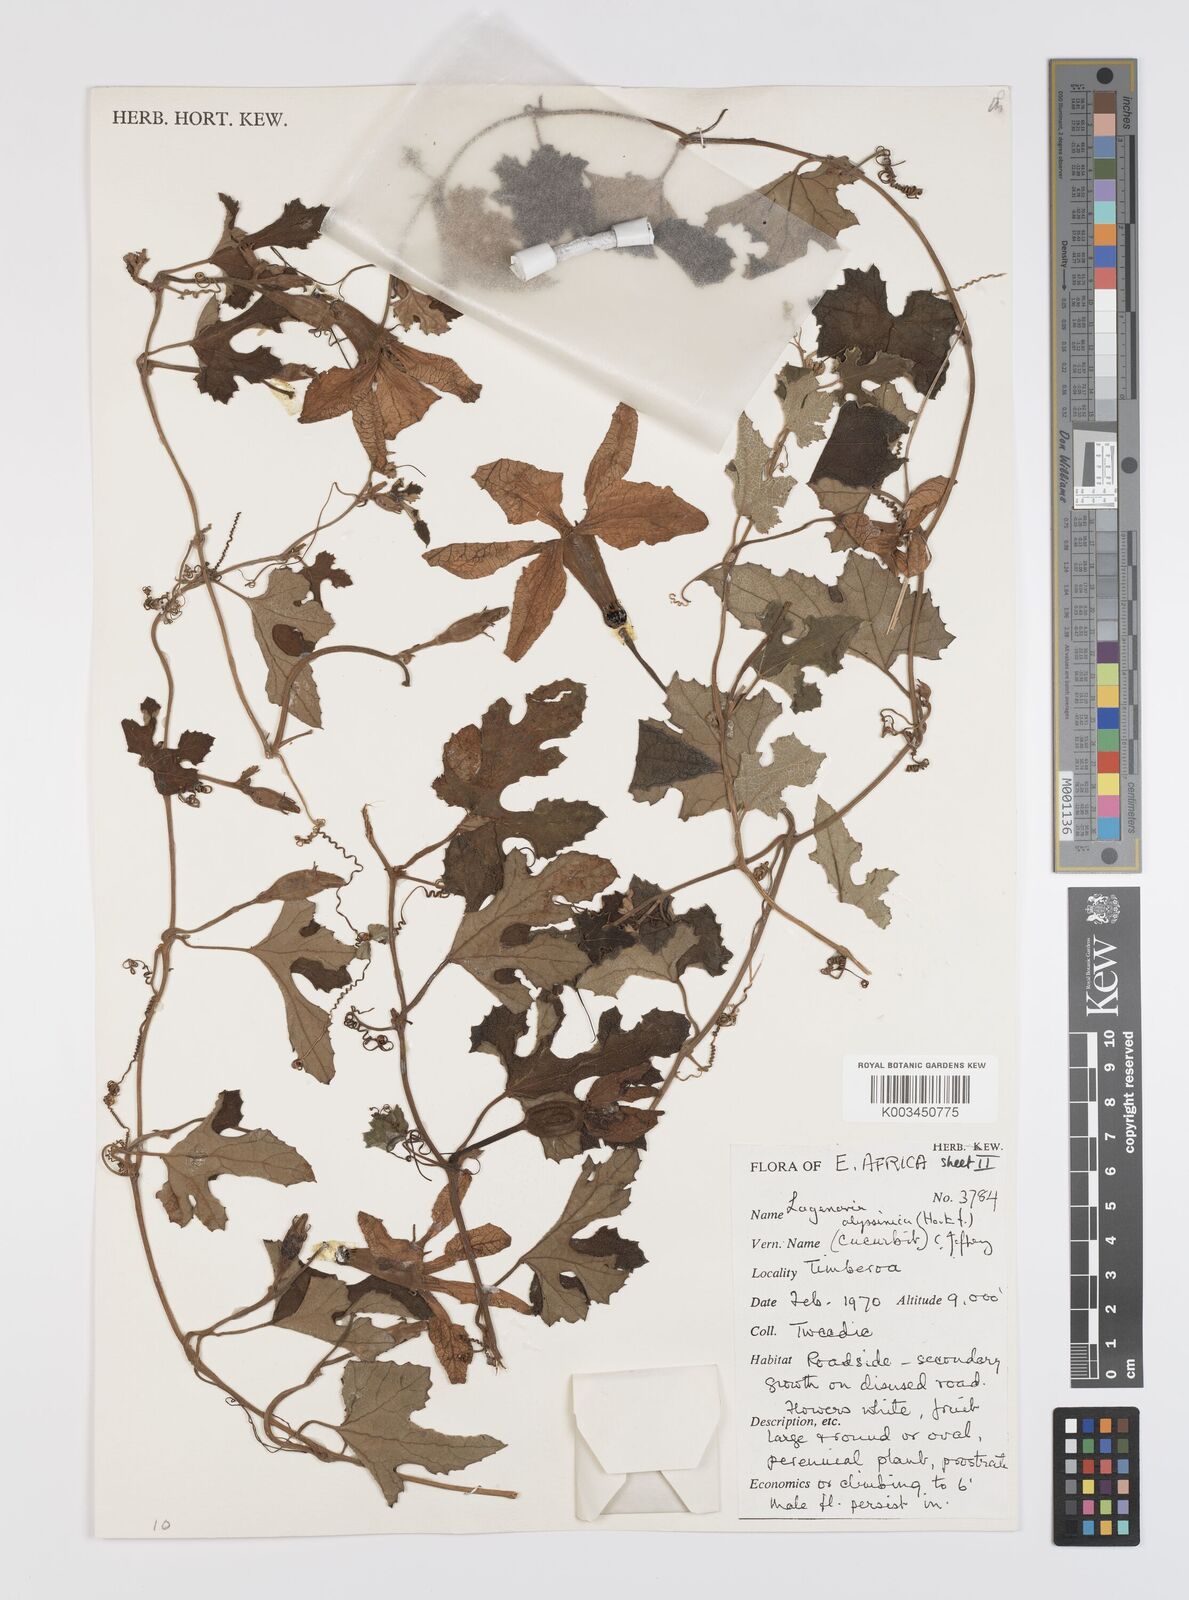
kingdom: Plantae
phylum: Tracheophyta
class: Magnoliopsida
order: Cucurbitales
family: Cucurbitaceae
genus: Lagenaria
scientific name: Lagenaria abyssinica
